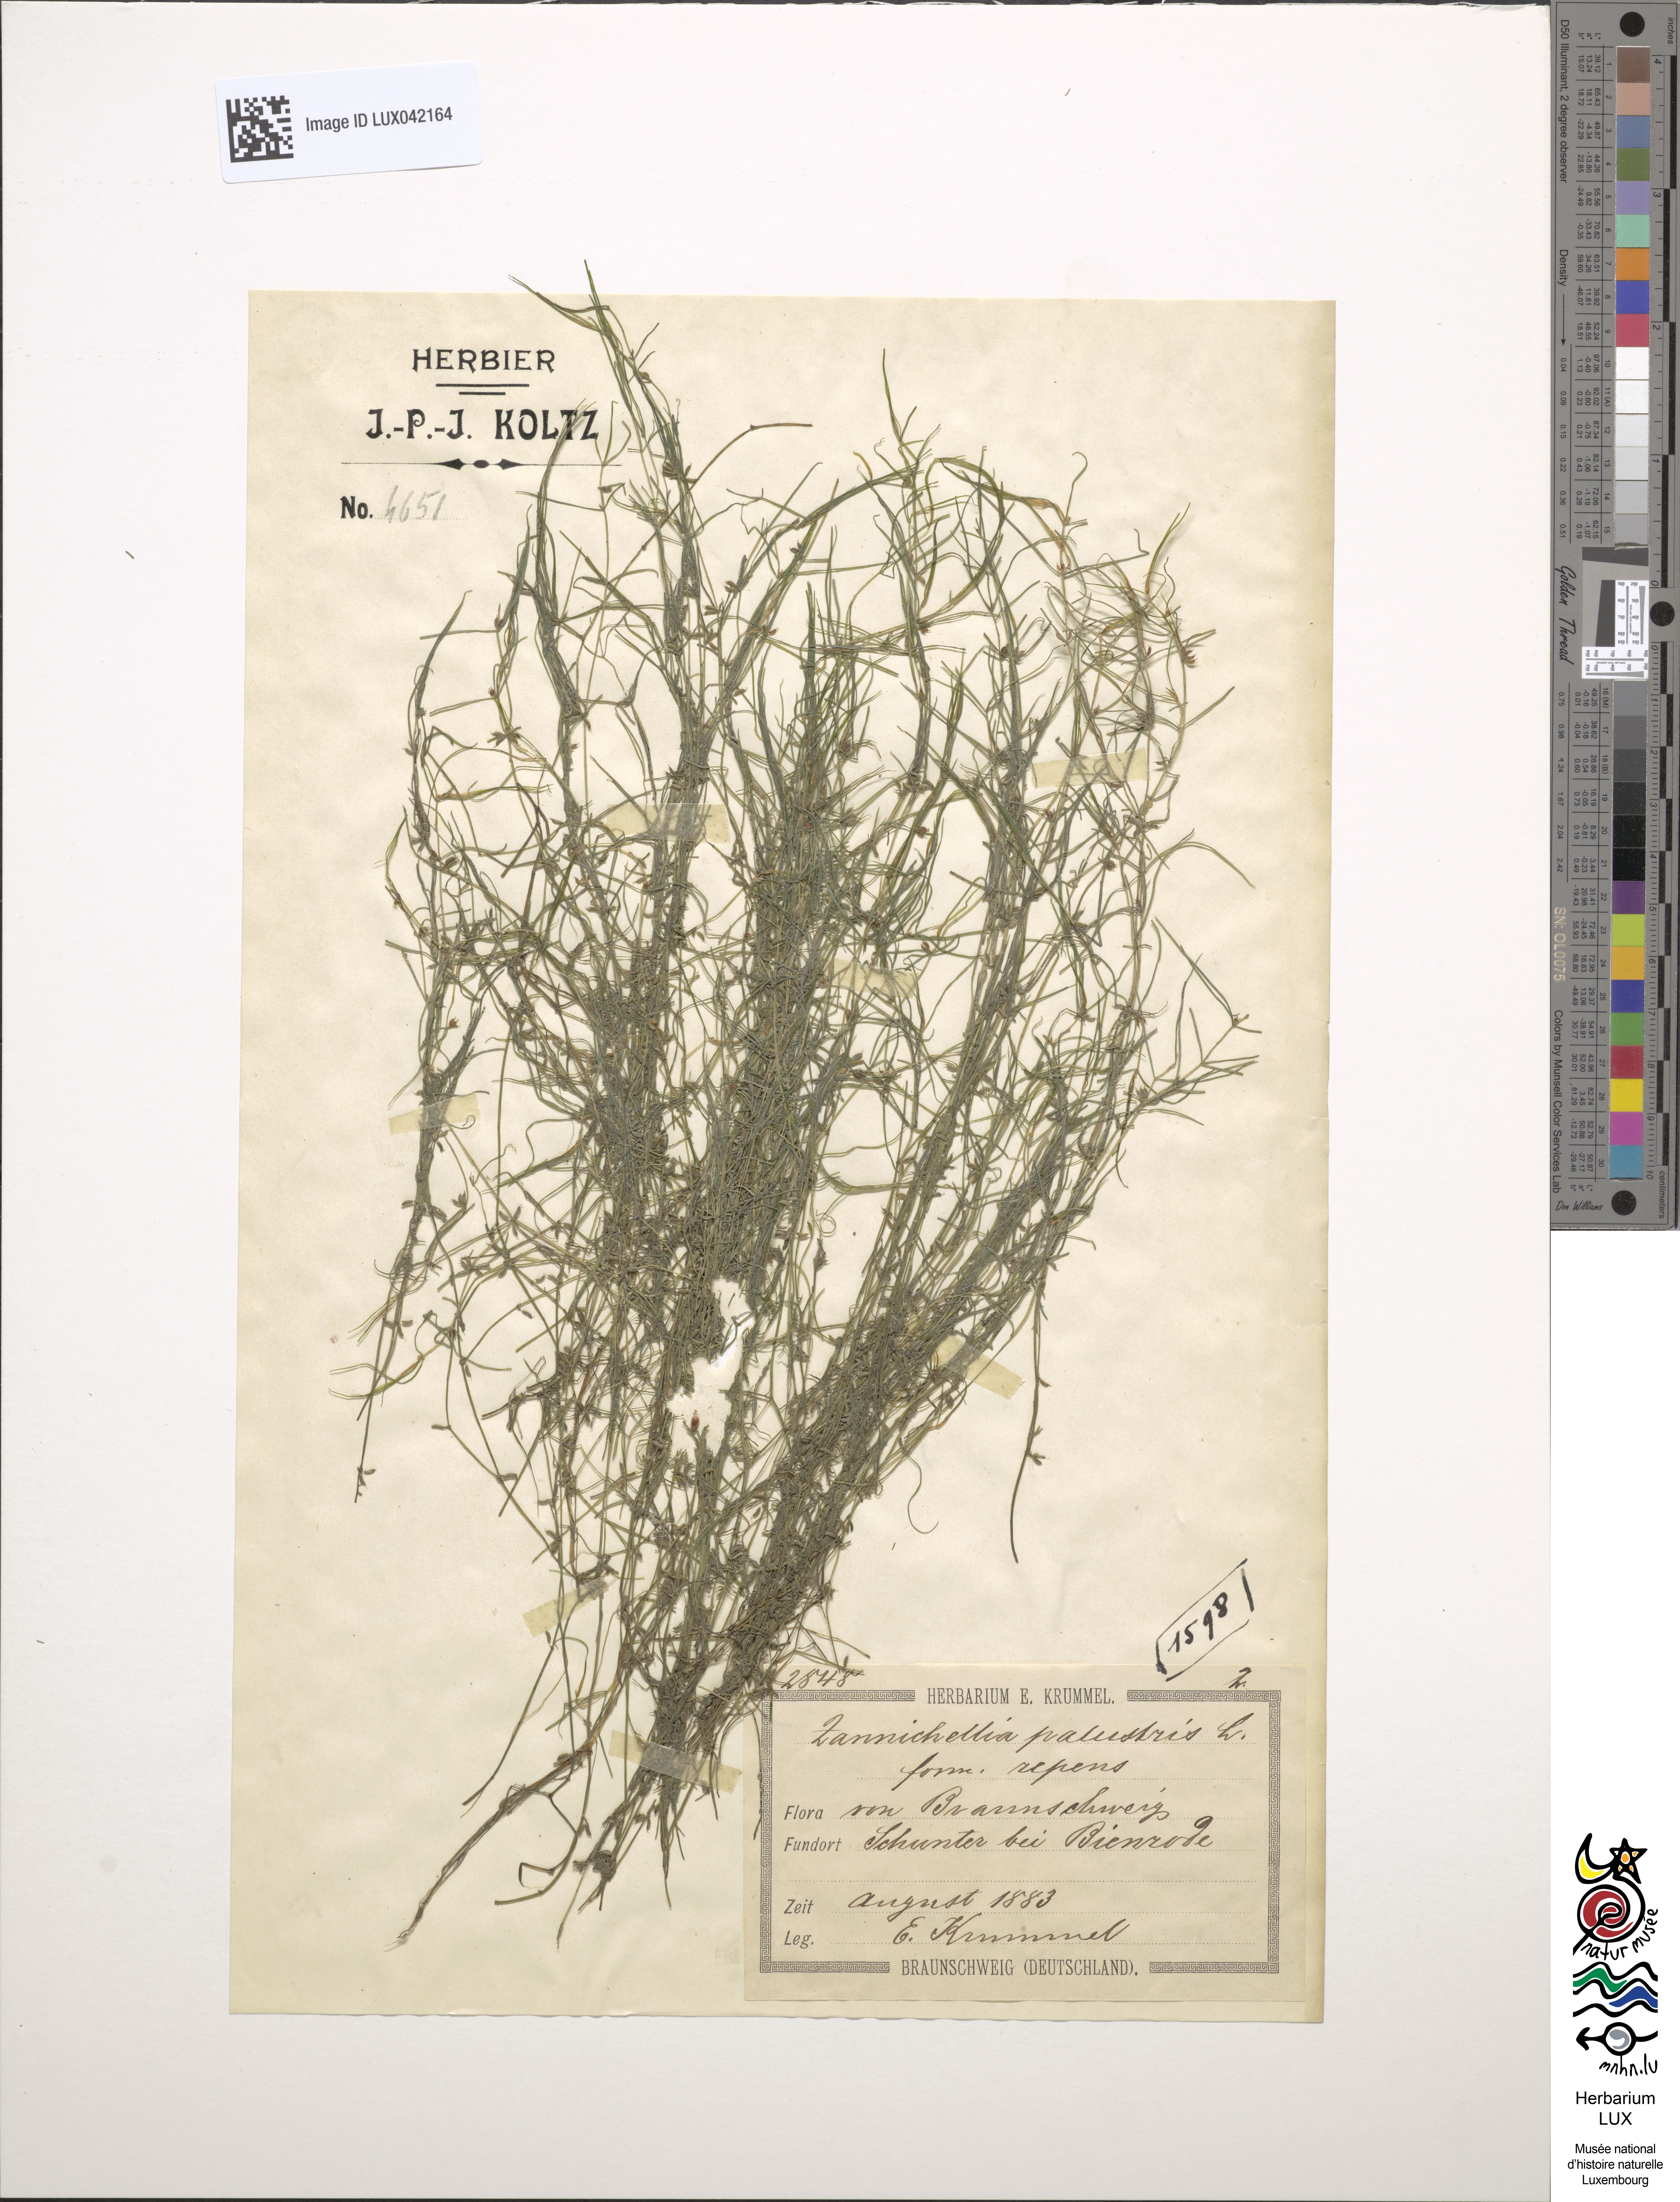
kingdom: Plantae
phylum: Tracheophyta
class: Liliopsida
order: Alismatales
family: Potamogetonaceae
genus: Zannichellia
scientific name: Zannichellia palustris
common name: Horned pondweed
